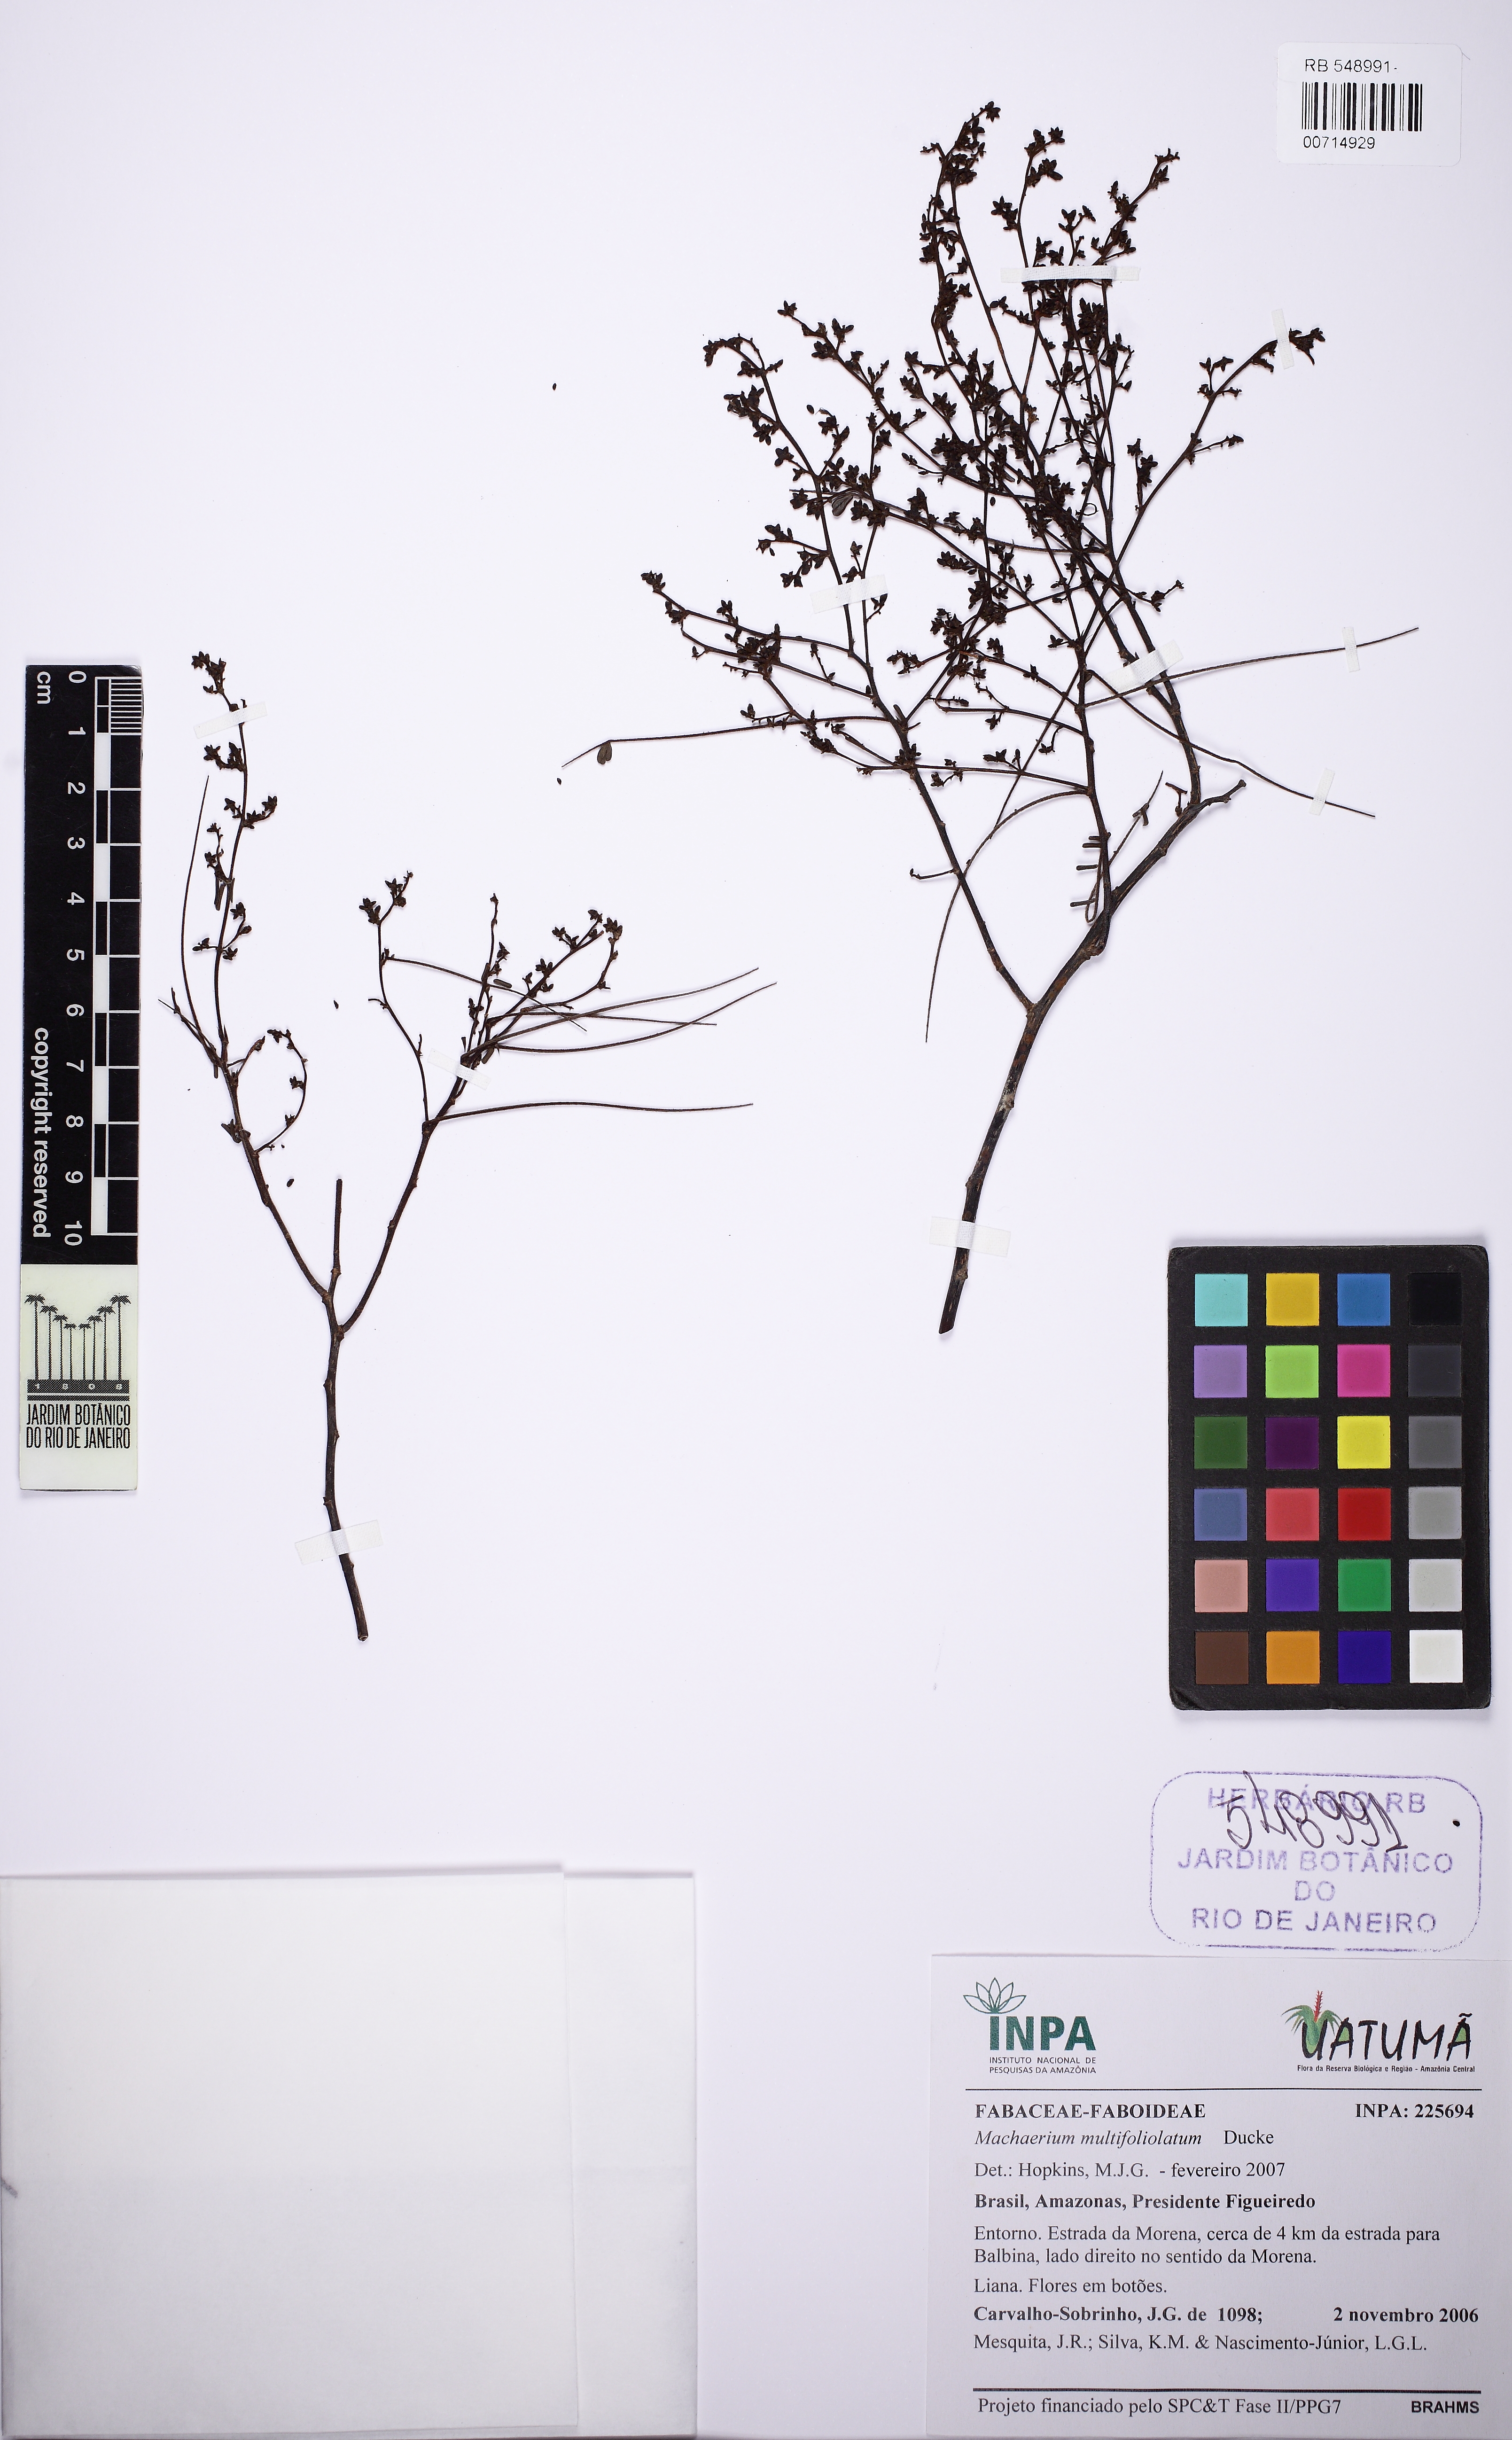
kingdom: Plantae
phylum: Tracheophyta
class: Magnoliopsida
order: Fabales
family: Fabaceae
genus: Machaerium
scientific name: Machaerium multifoliolatum
